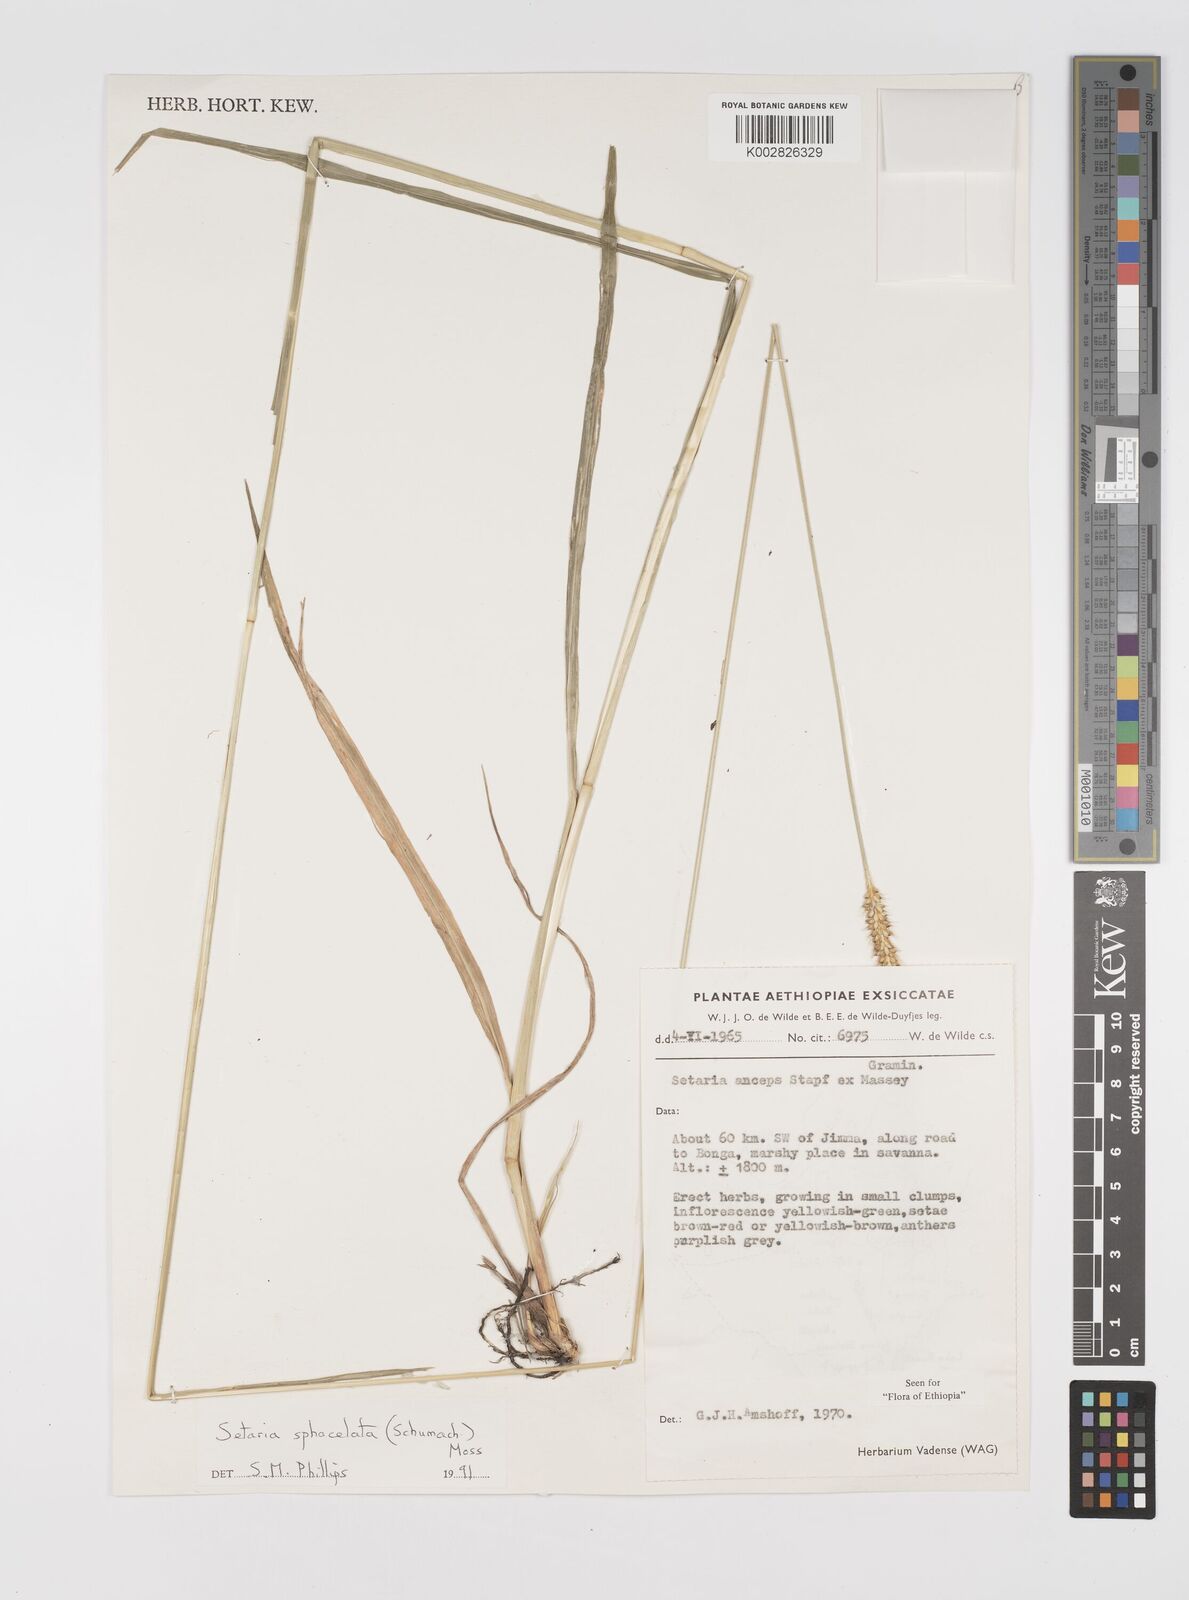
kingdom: Plantae
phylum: Tracheophyta
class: Liliopsida
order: Poales
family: Poaceae
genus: Setaria
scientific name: Setaria sphacelata
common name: African bristlegrass
